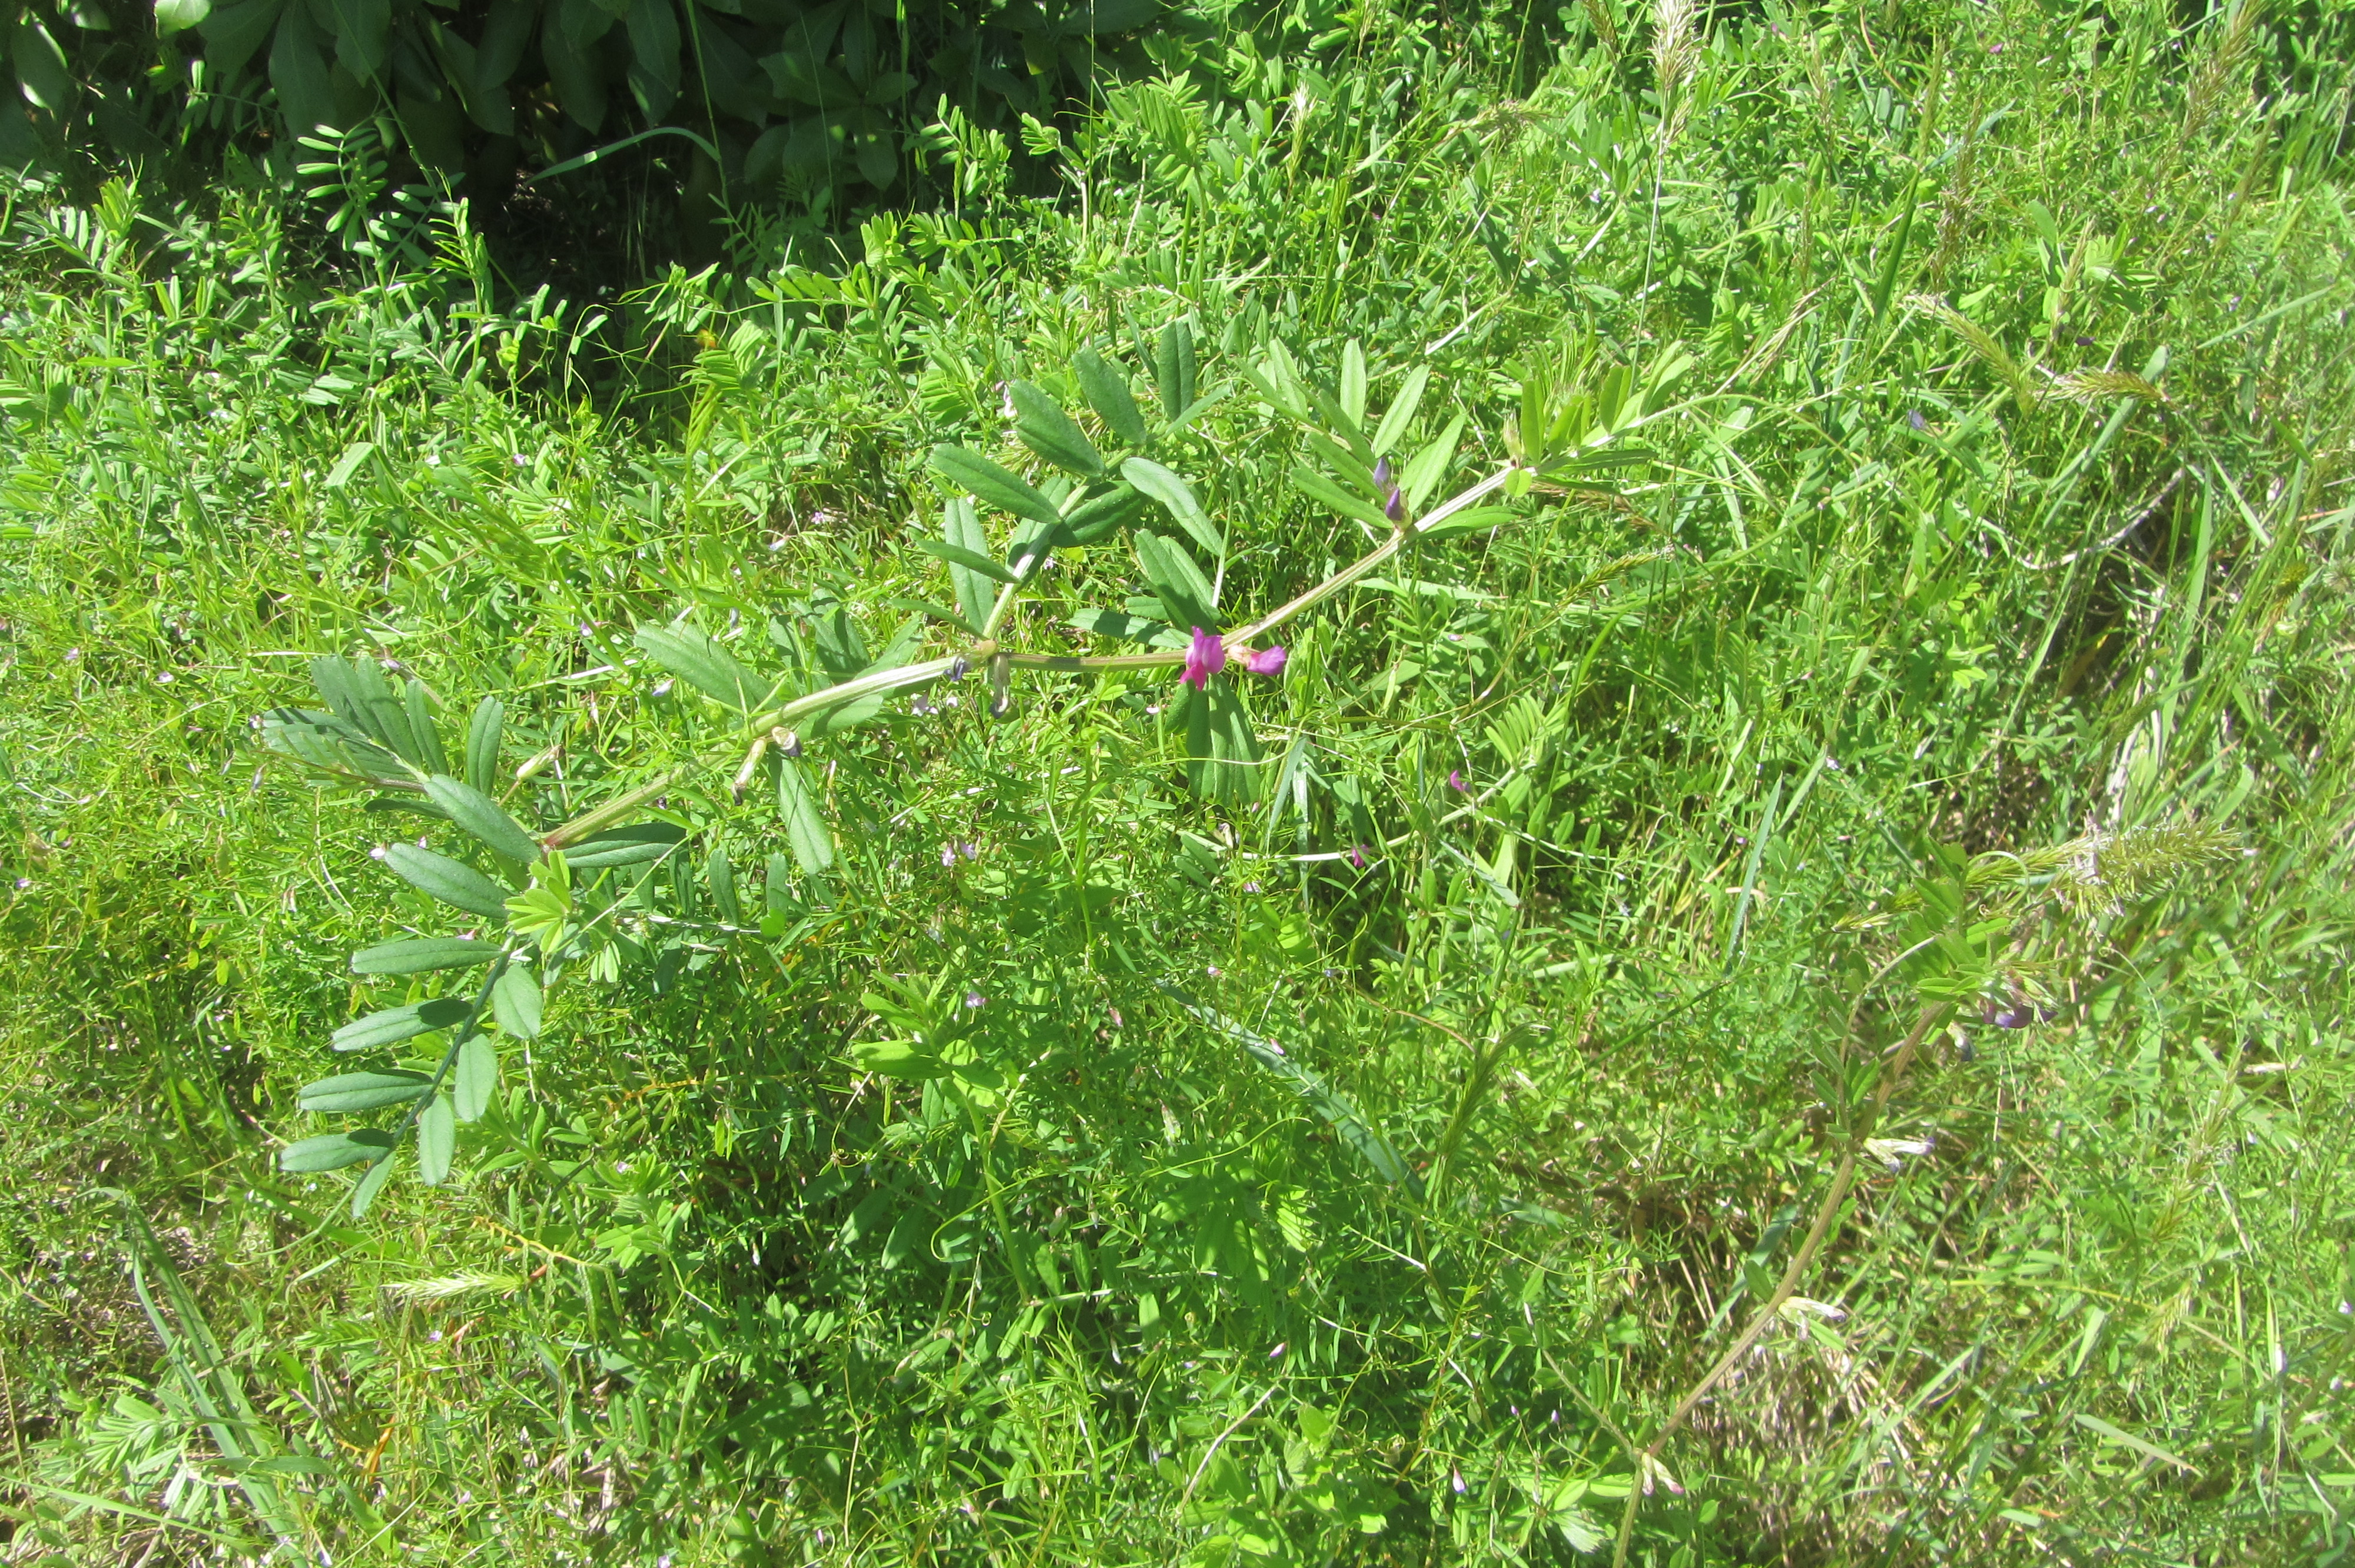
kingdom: Plantae
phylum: Tracheophyta
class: Magnoliopsida
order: Fabales
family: Fabaceae
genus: Vicia
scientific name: Vicia sativa
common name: Garden vetch
